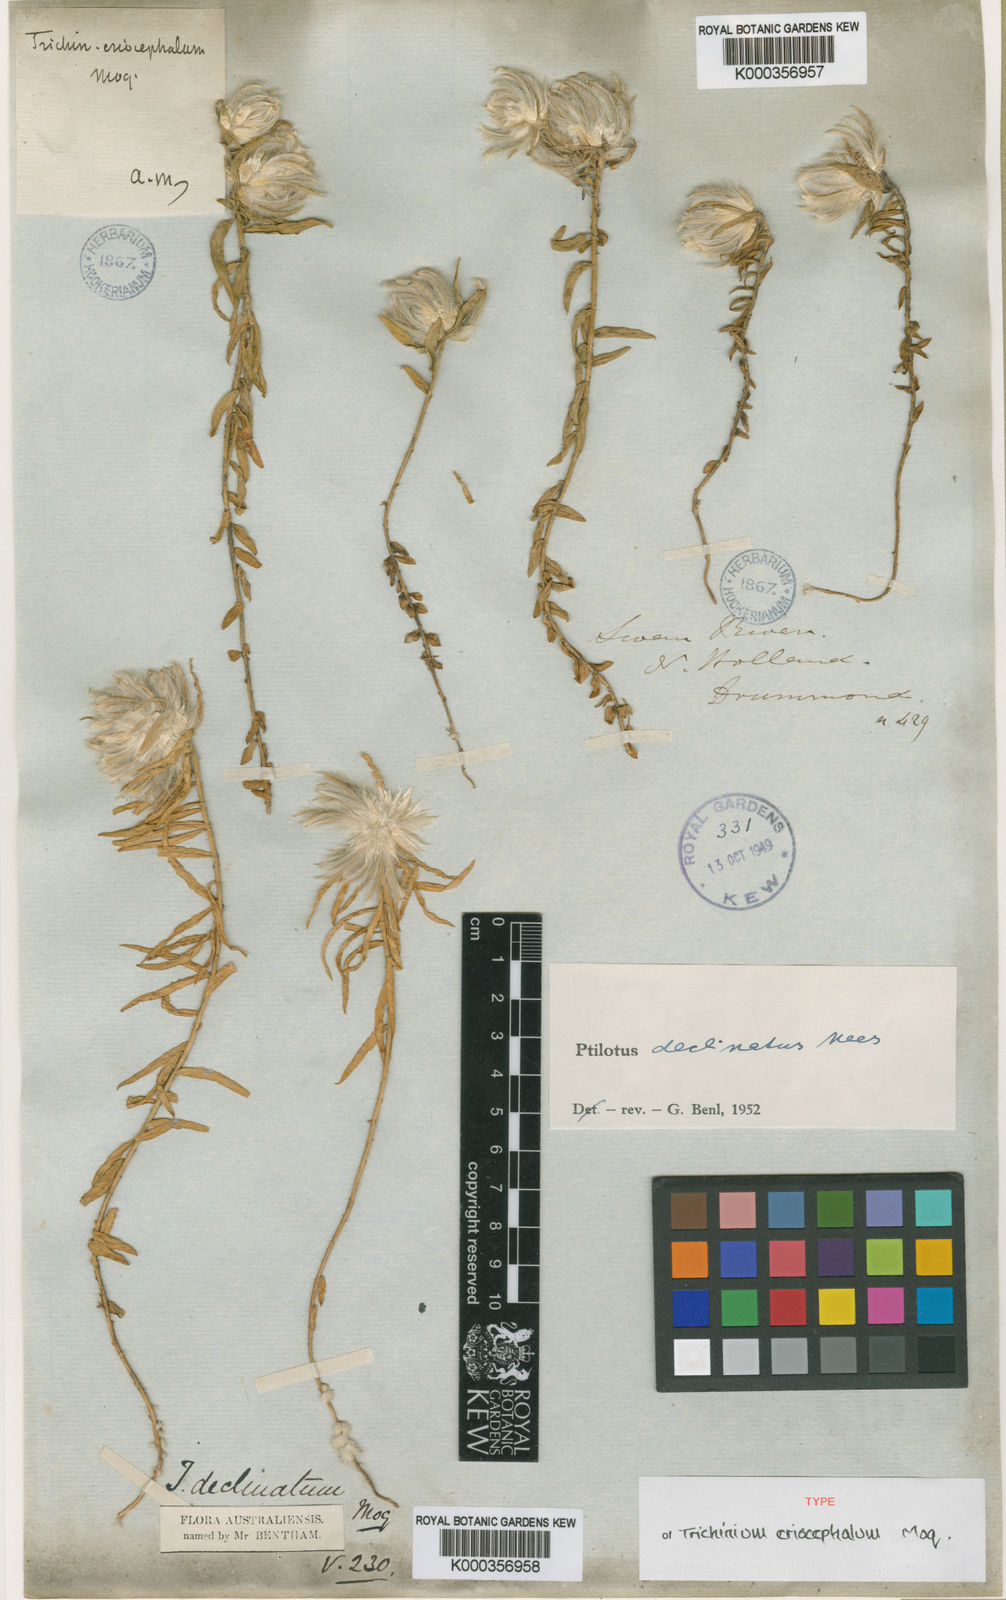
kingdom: Plantae
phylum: Tracheophyta
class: Magnoliopsida
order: Caryophyllales
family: Amaranthaceae
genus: Ptilotus
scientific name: Ptilotus declinatus
